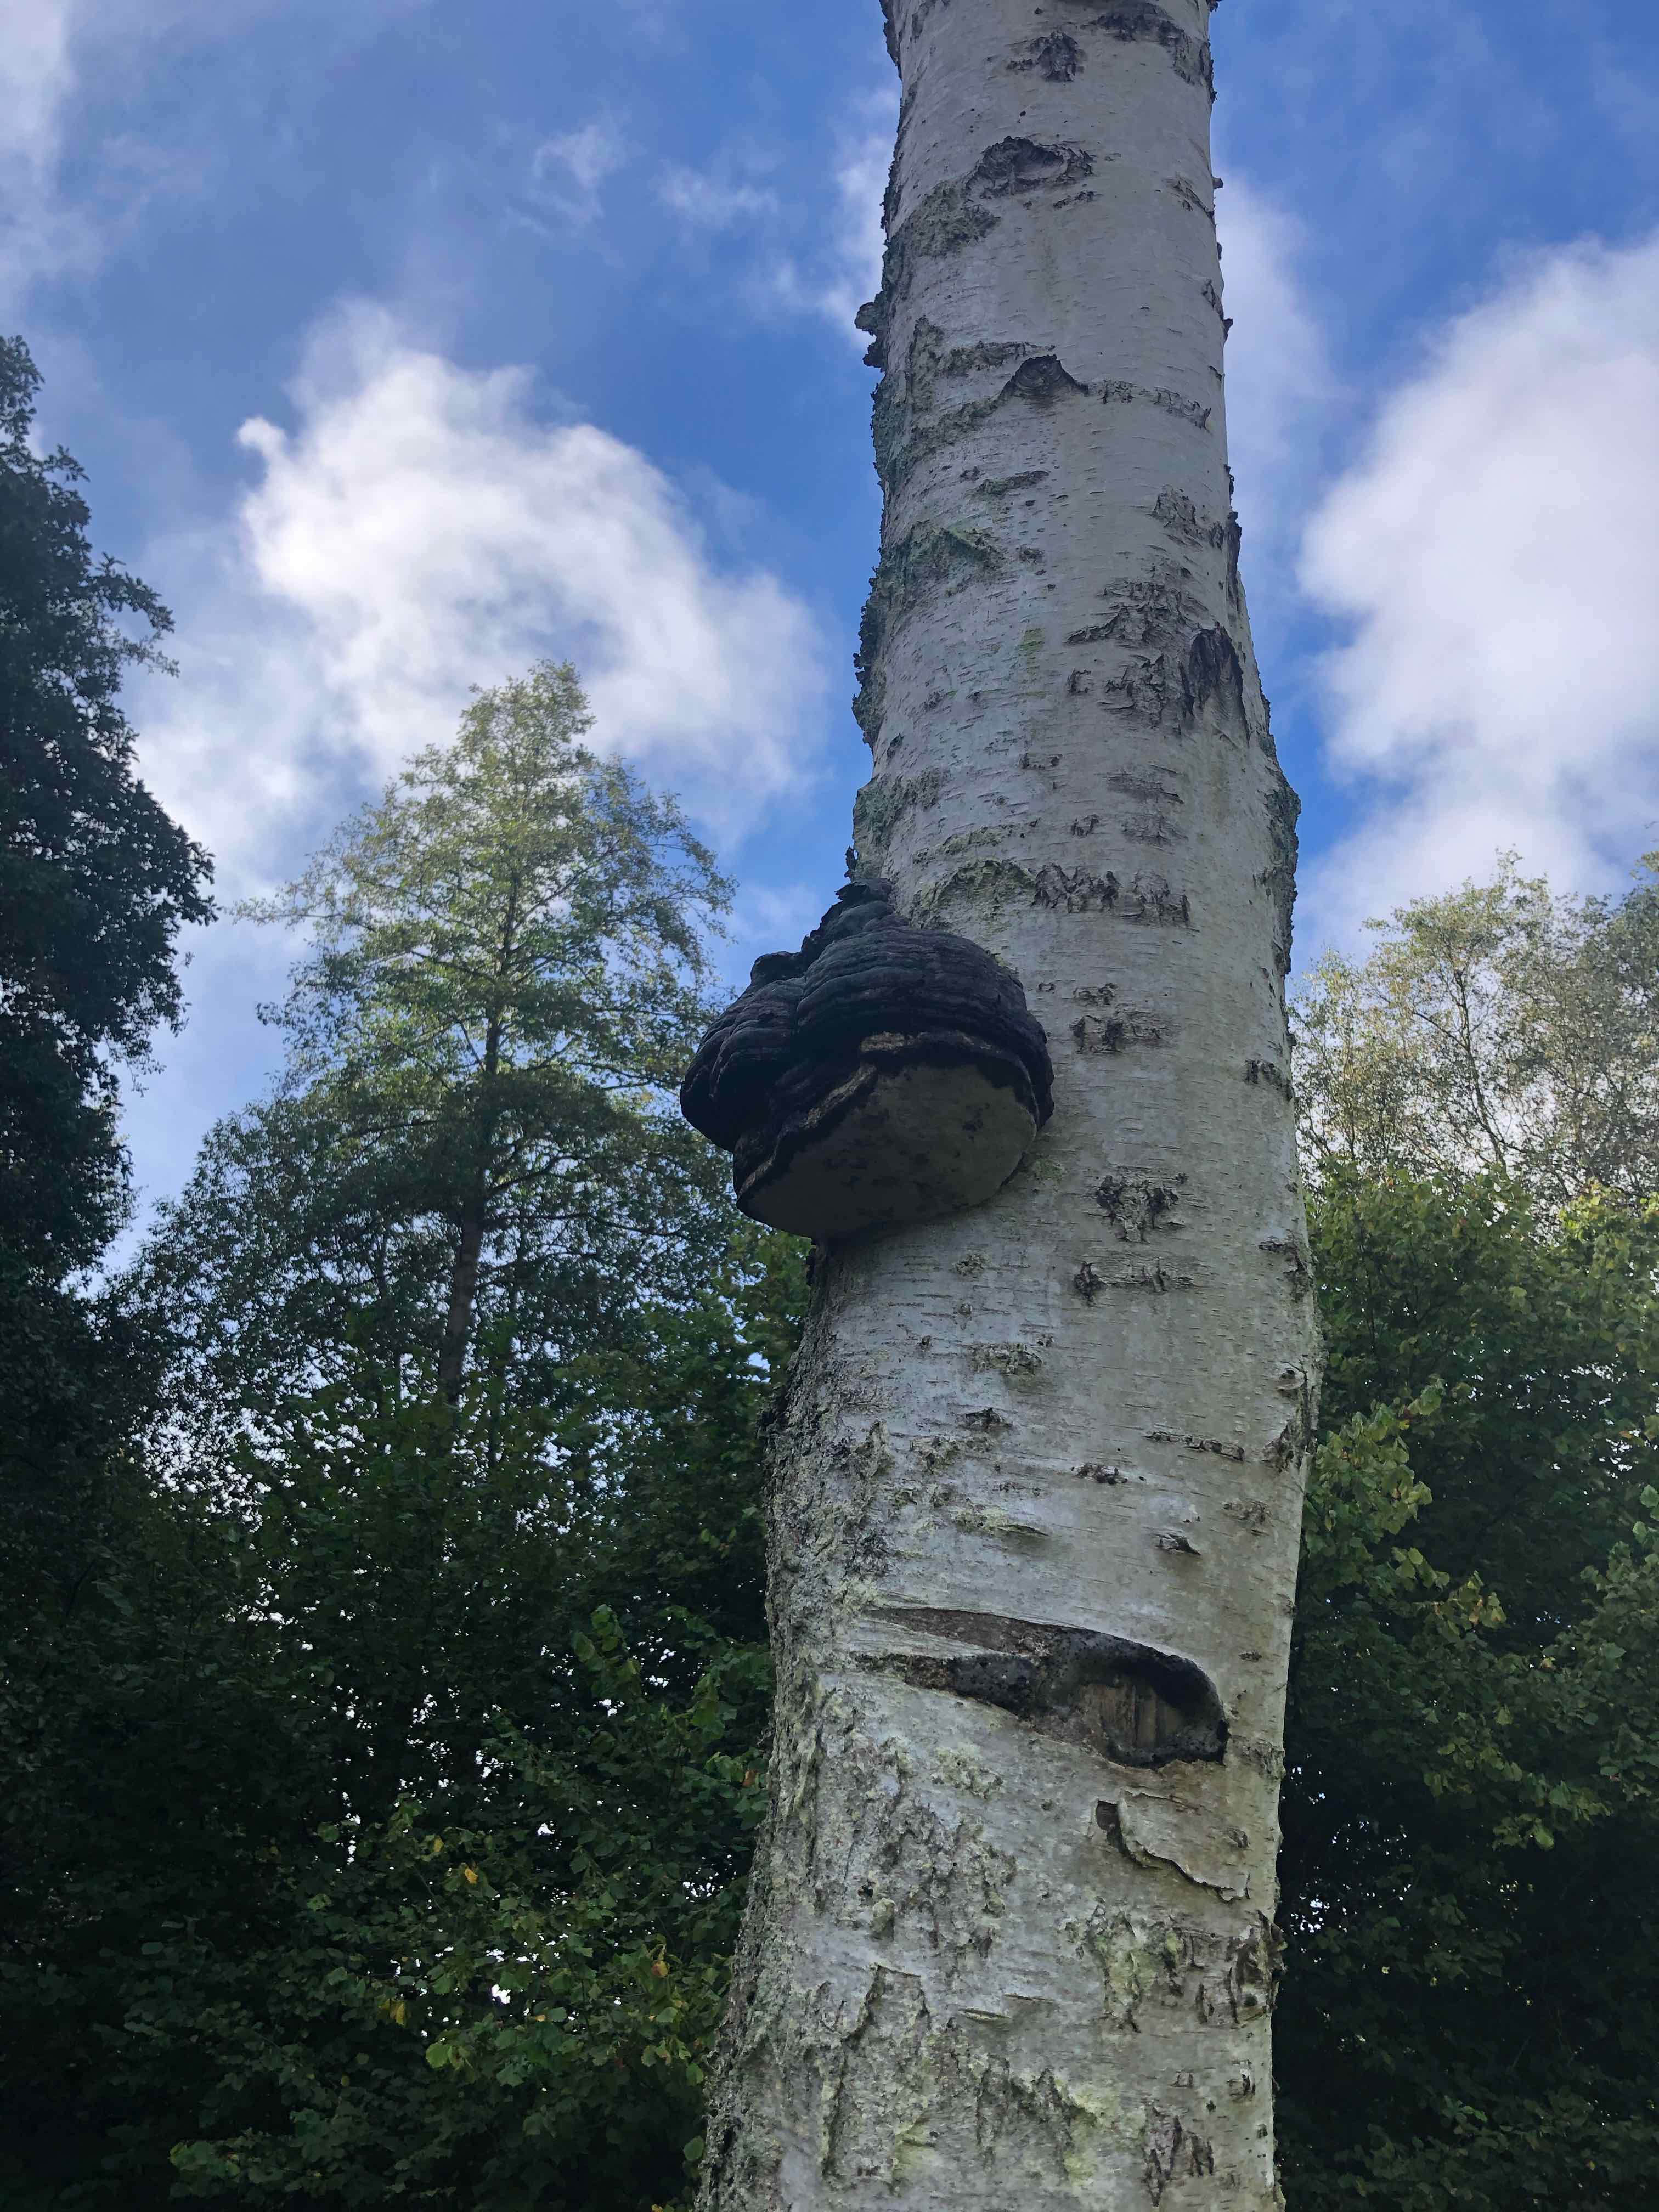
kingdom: Fungi
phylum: Basidiomycota
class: Agaricomycetes
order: Polyporales
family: Polyporaceae
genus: Fomes
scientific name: Fomes fomentarius
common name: tøndersvamp
